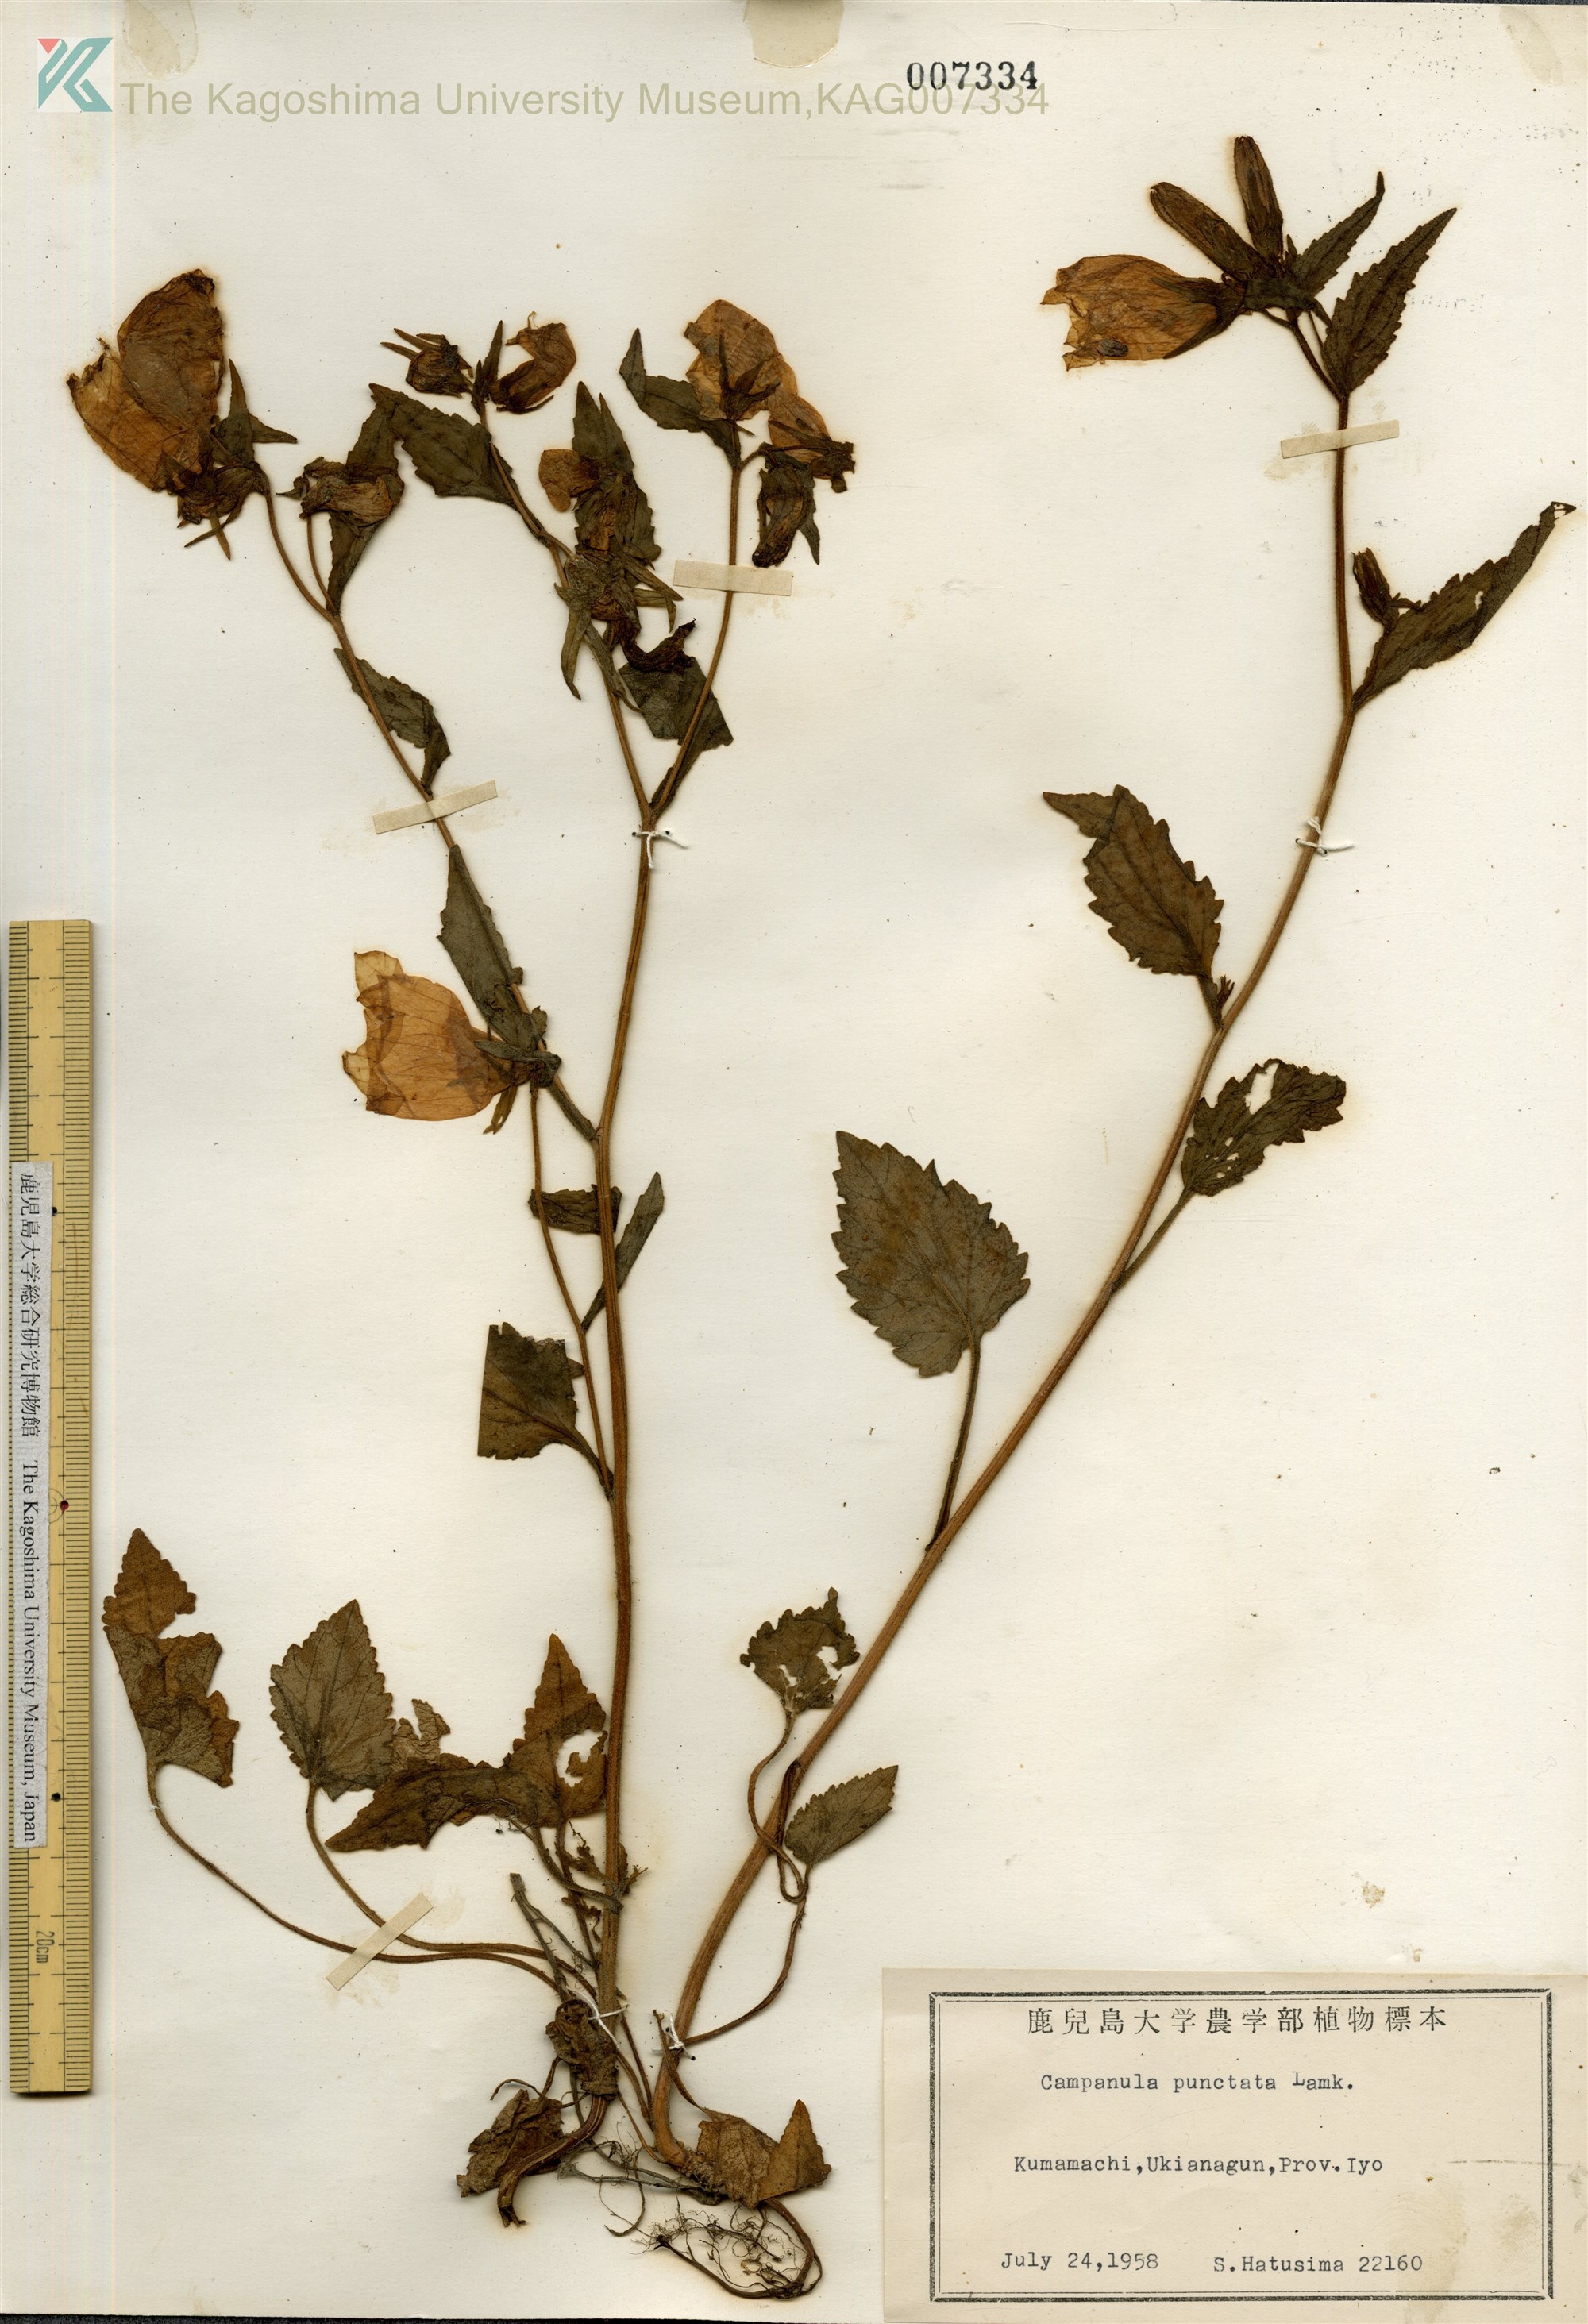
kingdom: Plantae
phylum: Tracheophyta
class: Magnoliopsida
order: Asterales
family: Campanulaceae
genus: Campanula
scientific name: Campanula punctata
